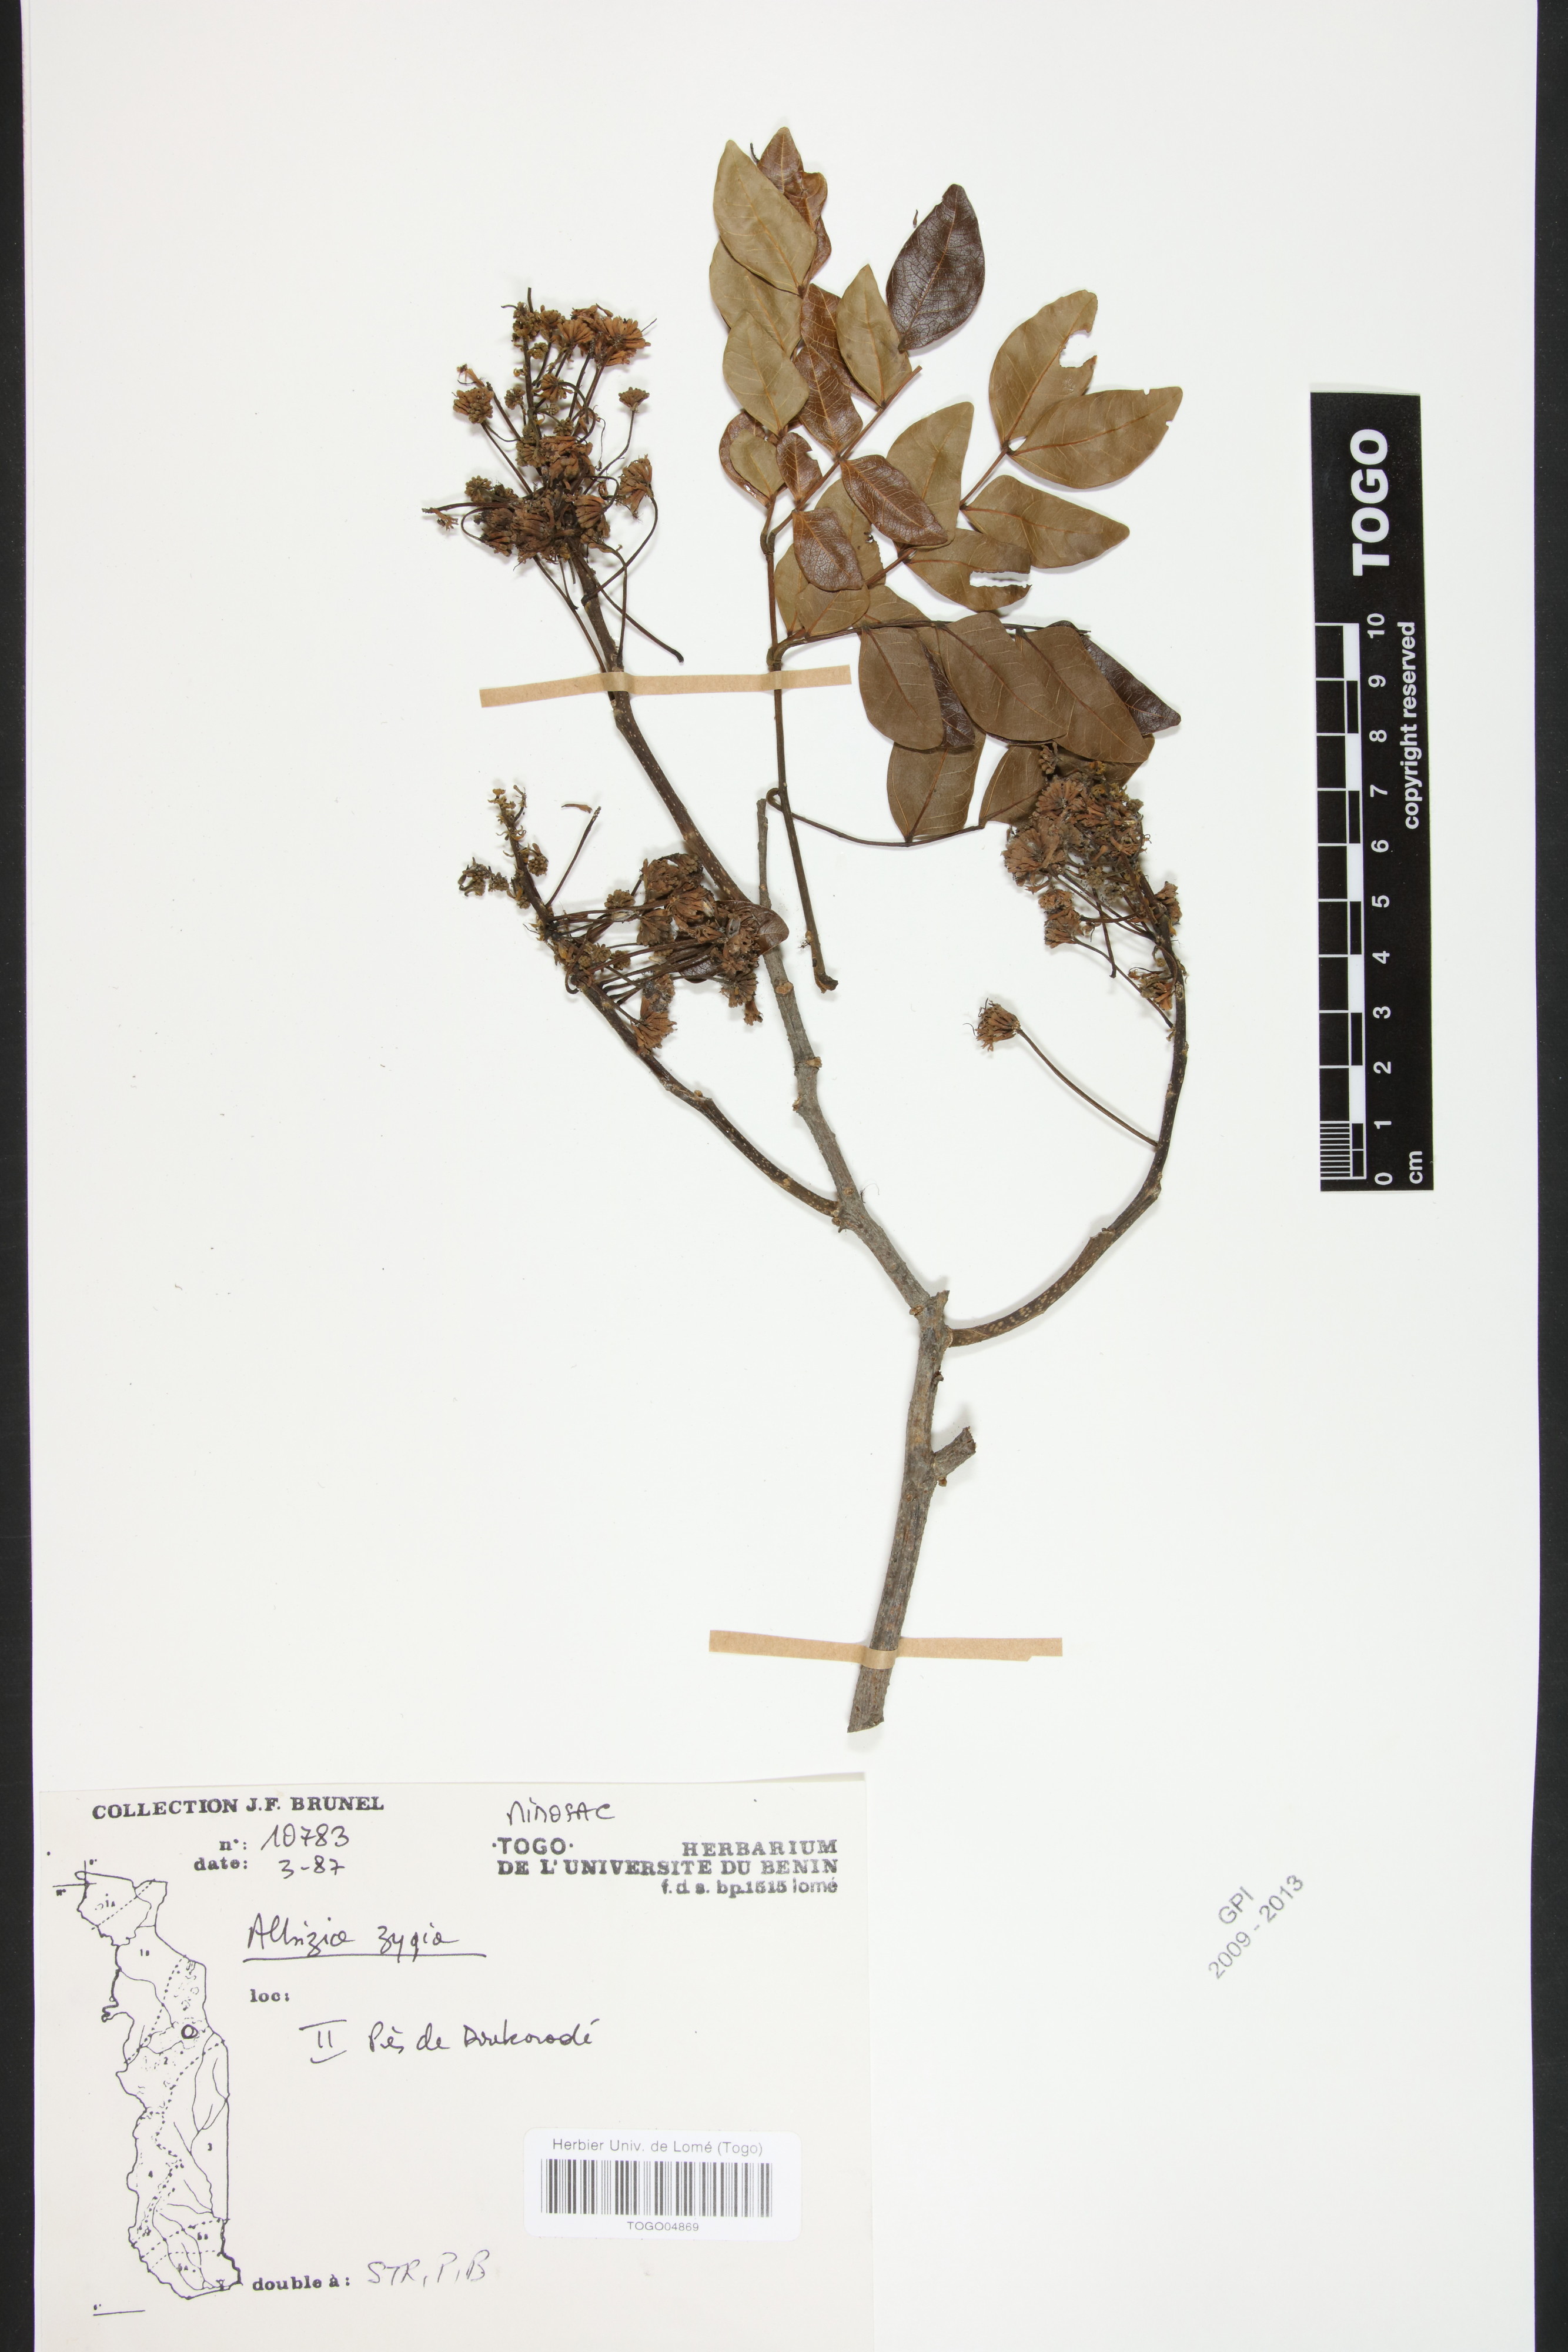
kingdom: Plantae
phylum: Tracheophyta
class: Magnoliopsida
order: Fabales
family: Fabaceae
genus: Albizia
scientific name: Albizia zygia
